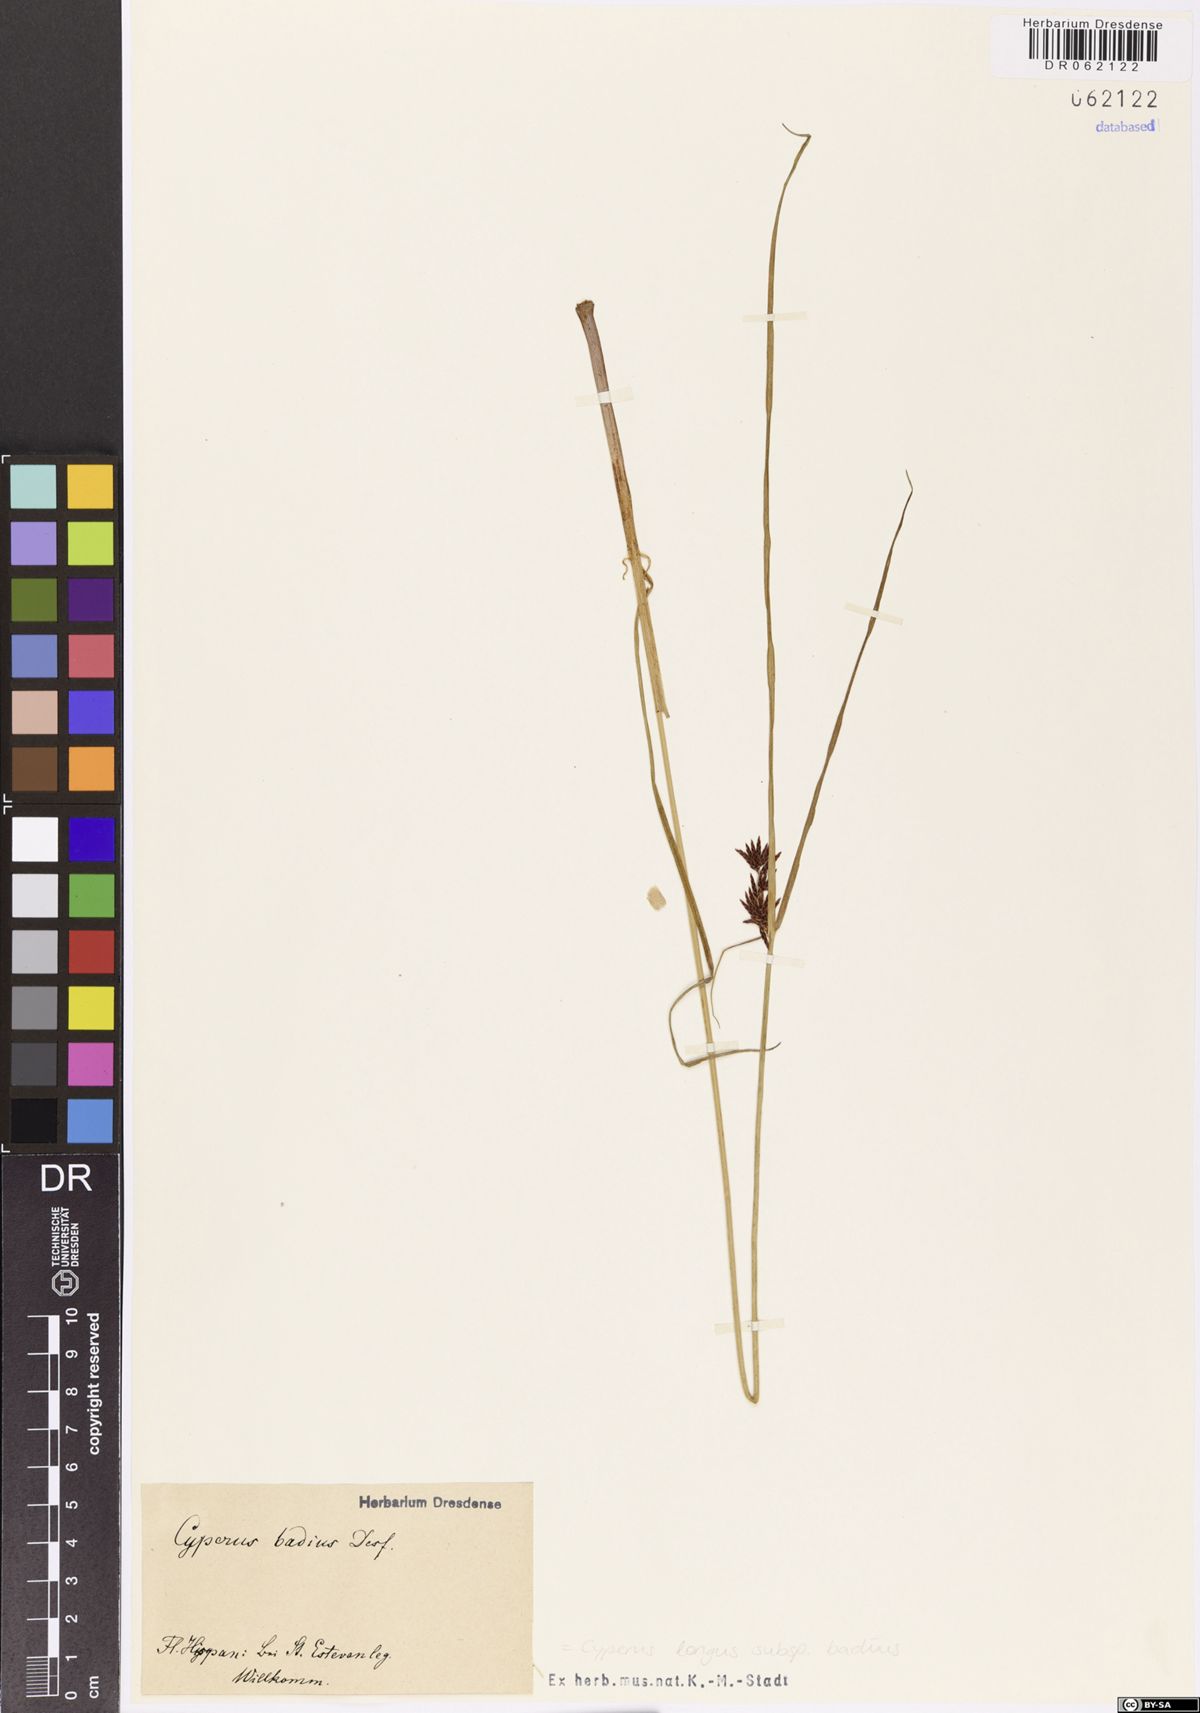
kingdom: Plantae
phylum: Tracheophyta
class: Liliopsida
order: Poales
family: Cyperaceae
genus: Cyperus
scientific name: Cyperus longus
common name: Galingale
